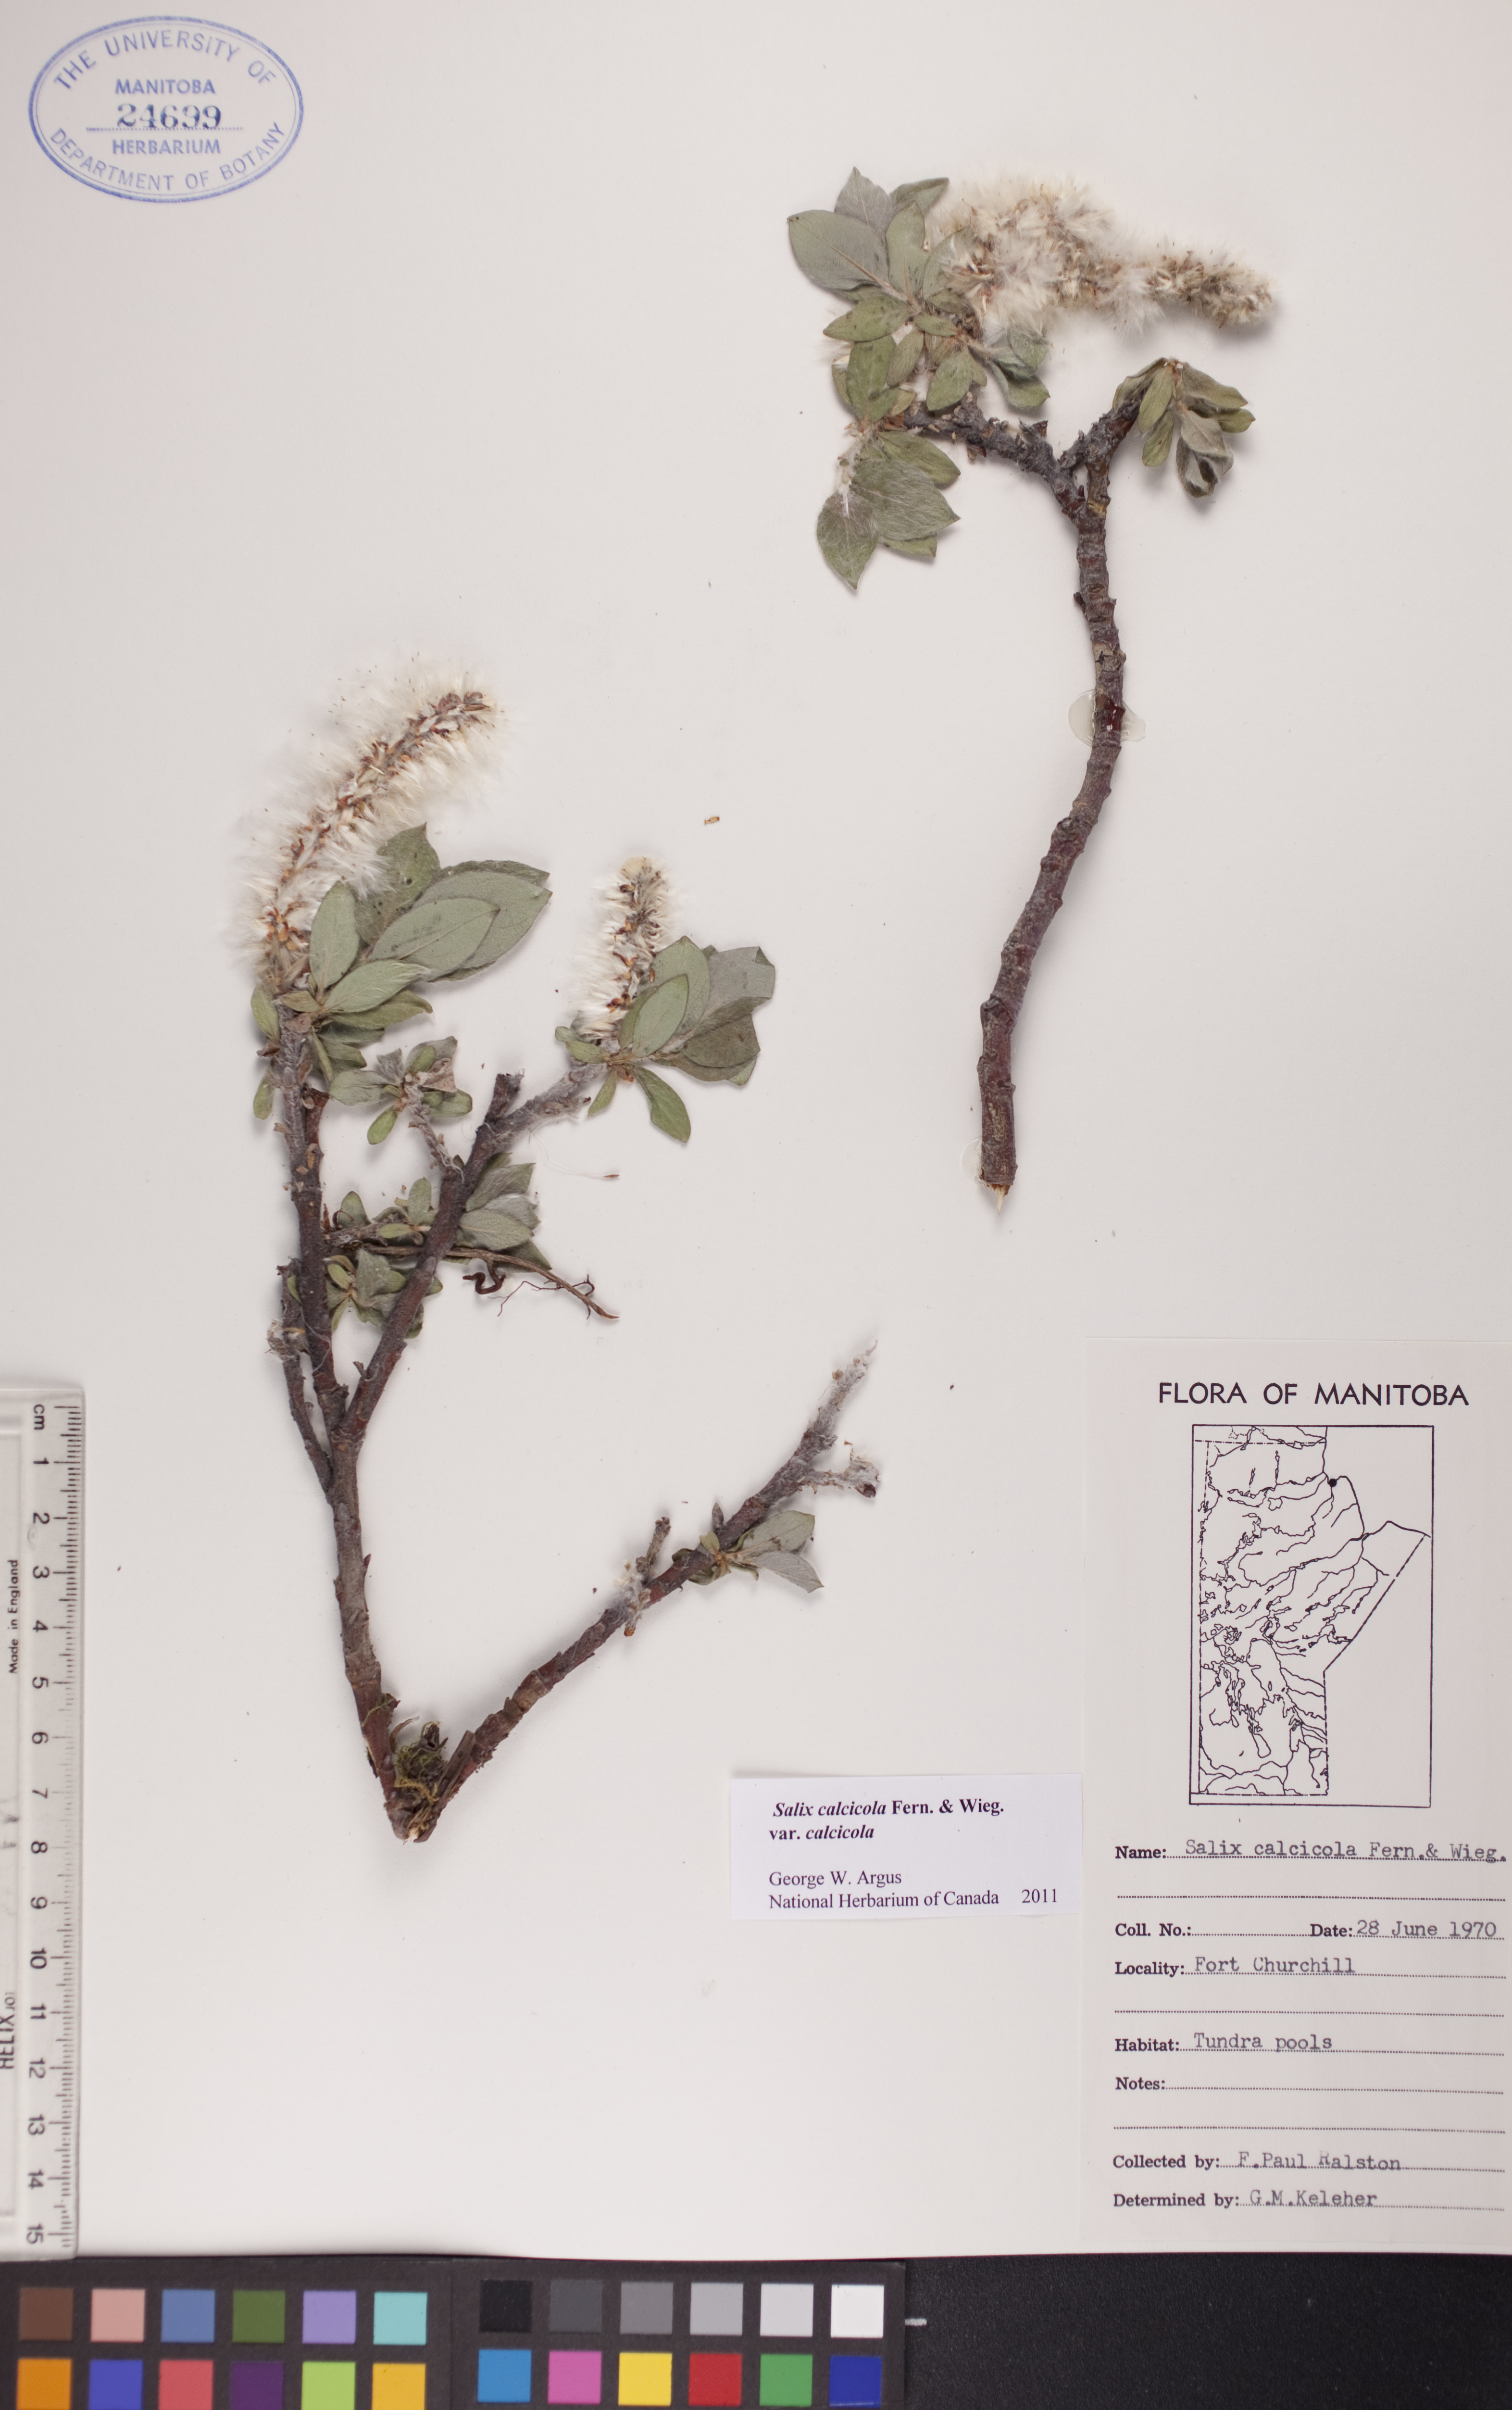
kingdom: Plantae
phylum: Tracheophyta
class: Magnoliopsida
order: Malpighiales
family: Salicaceae
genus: Salix
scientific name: Salix calcicola
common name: Calcareous willow
